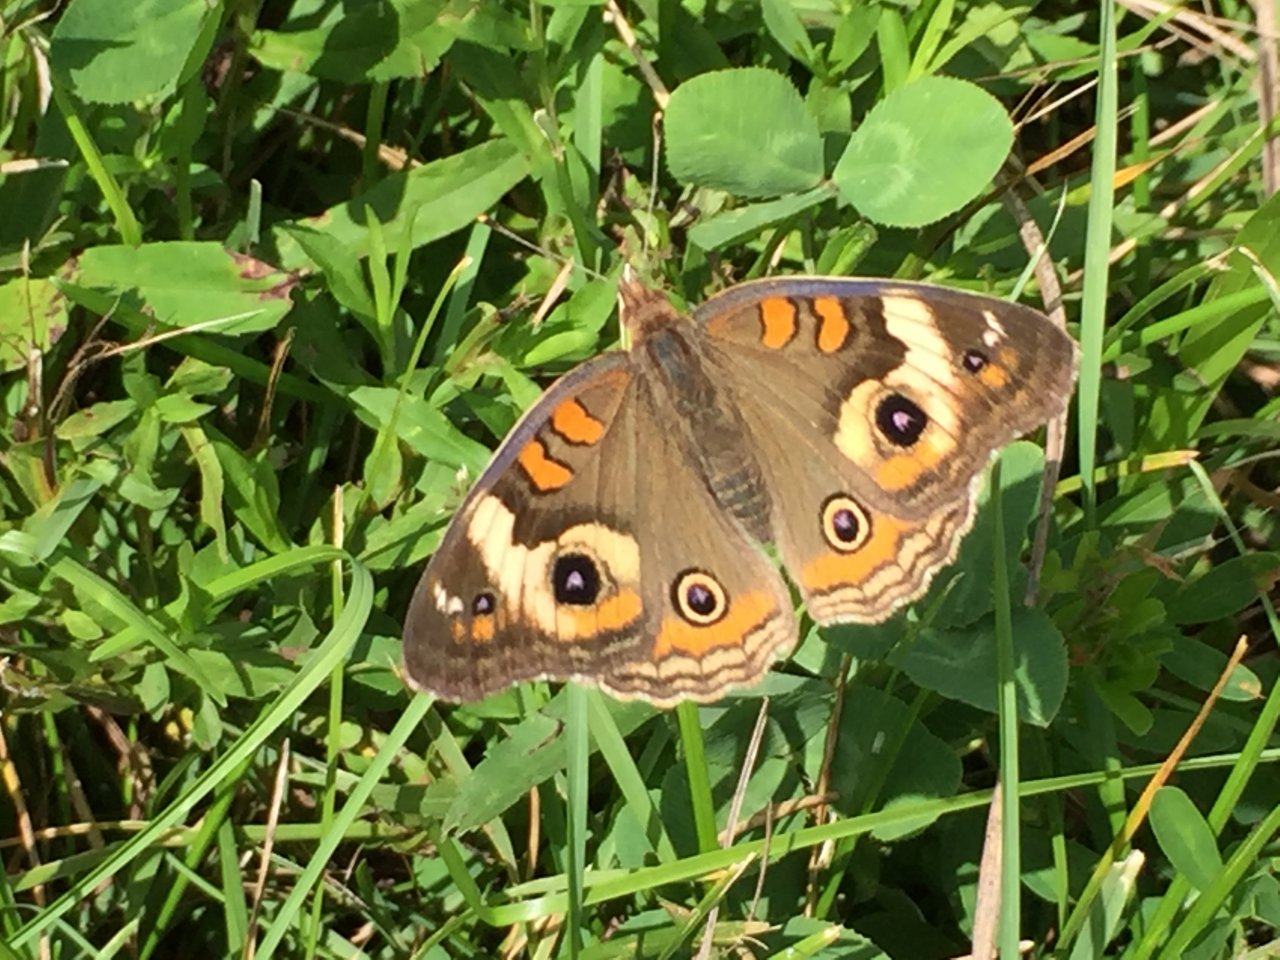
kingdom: Animalia
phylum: Arthropoda
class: Insecta
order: Lepidoptera
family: Nymphalidae
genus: Junonia
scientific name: Junonia coenia
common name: Common Buckeye
